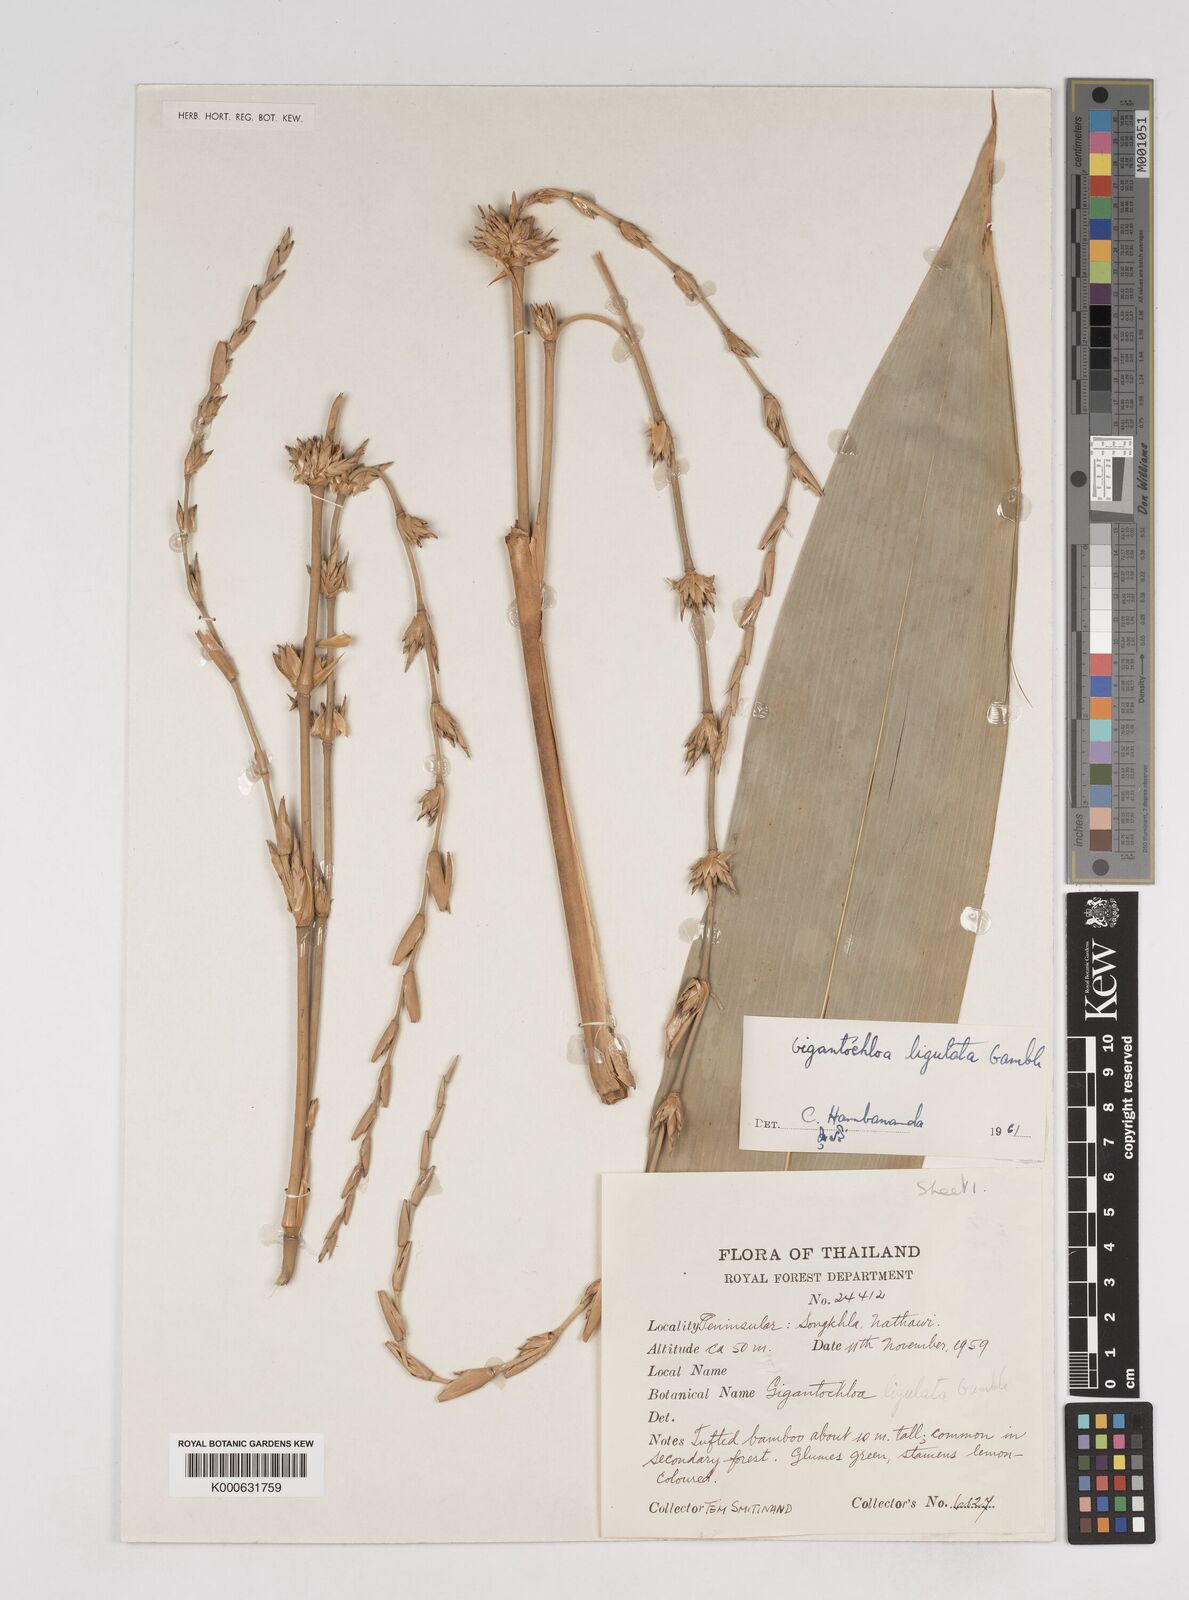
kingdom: Plantae
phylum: Tracheophyta
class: Liliopsida
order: Poales
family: Poaceae
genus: Gigantochloa
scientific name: Gigantochloa ligulata
